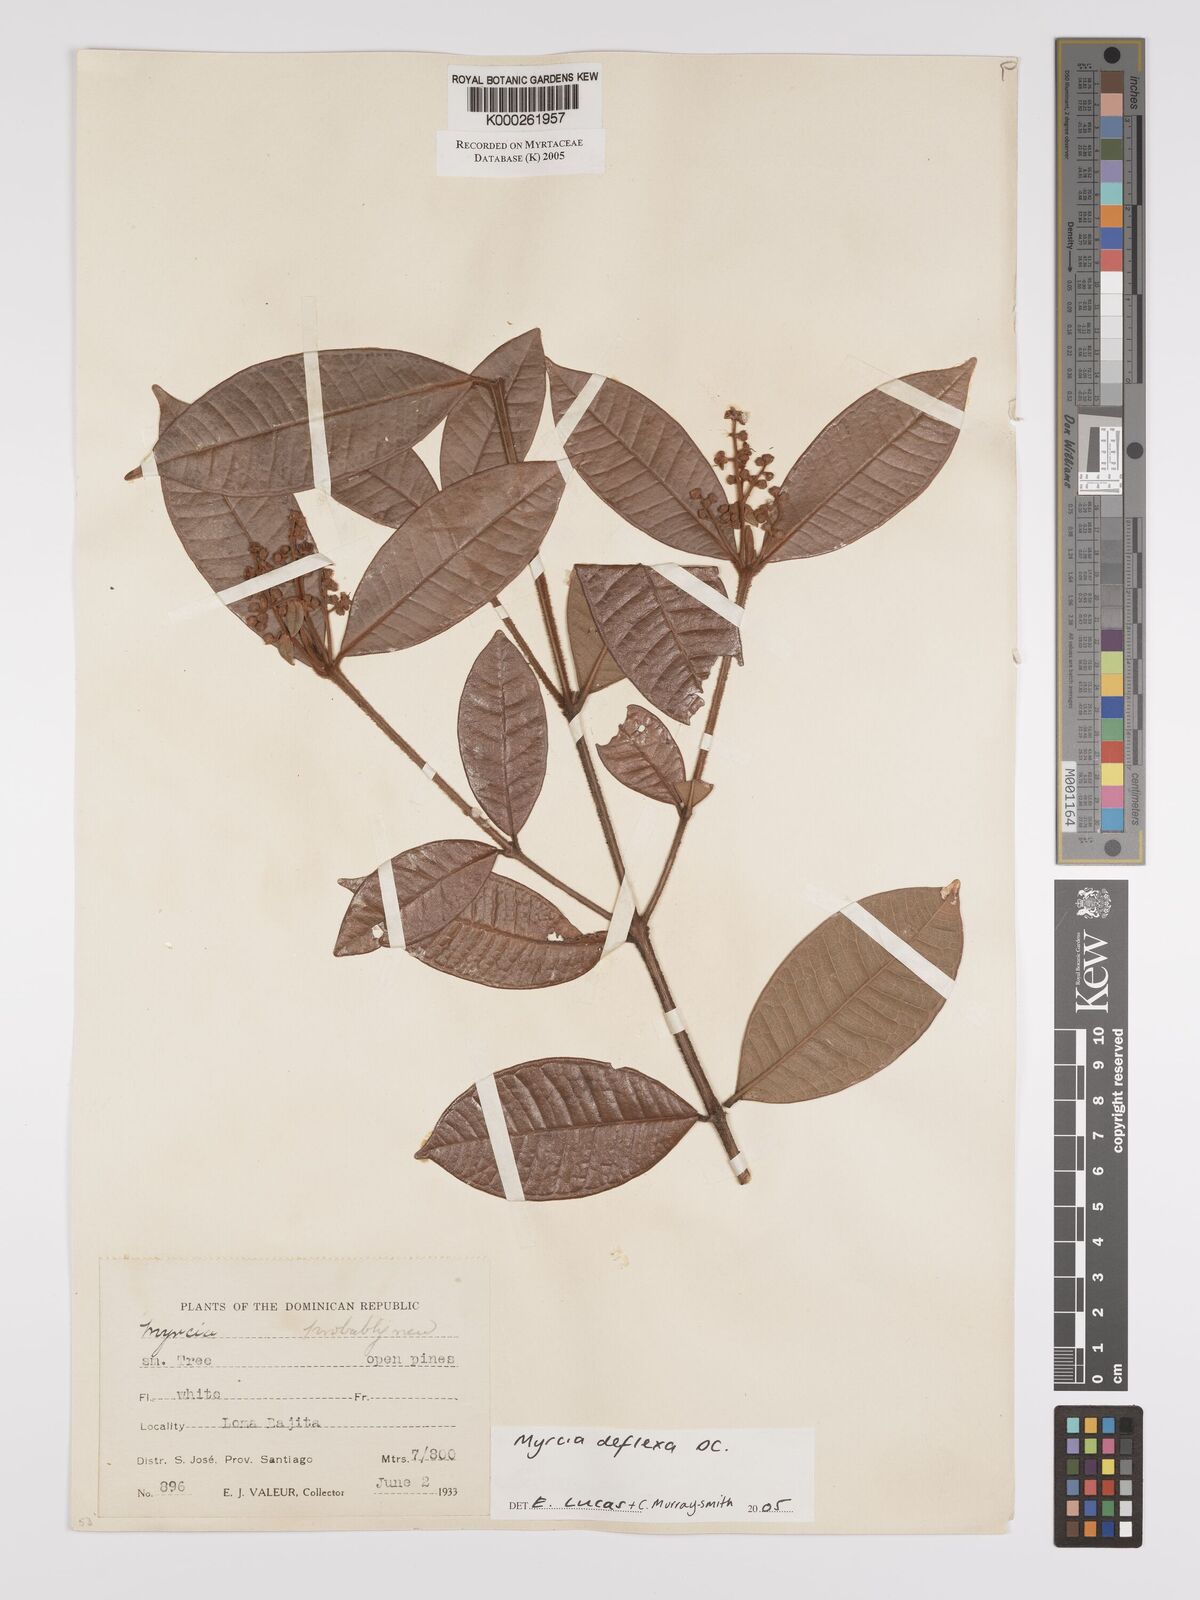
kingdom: Plantae
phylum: Tracheophyta
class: Magnoliopsida
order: Myrtales
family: Myrtaceae
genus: Myrcia
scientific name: Myrcia deflexa
